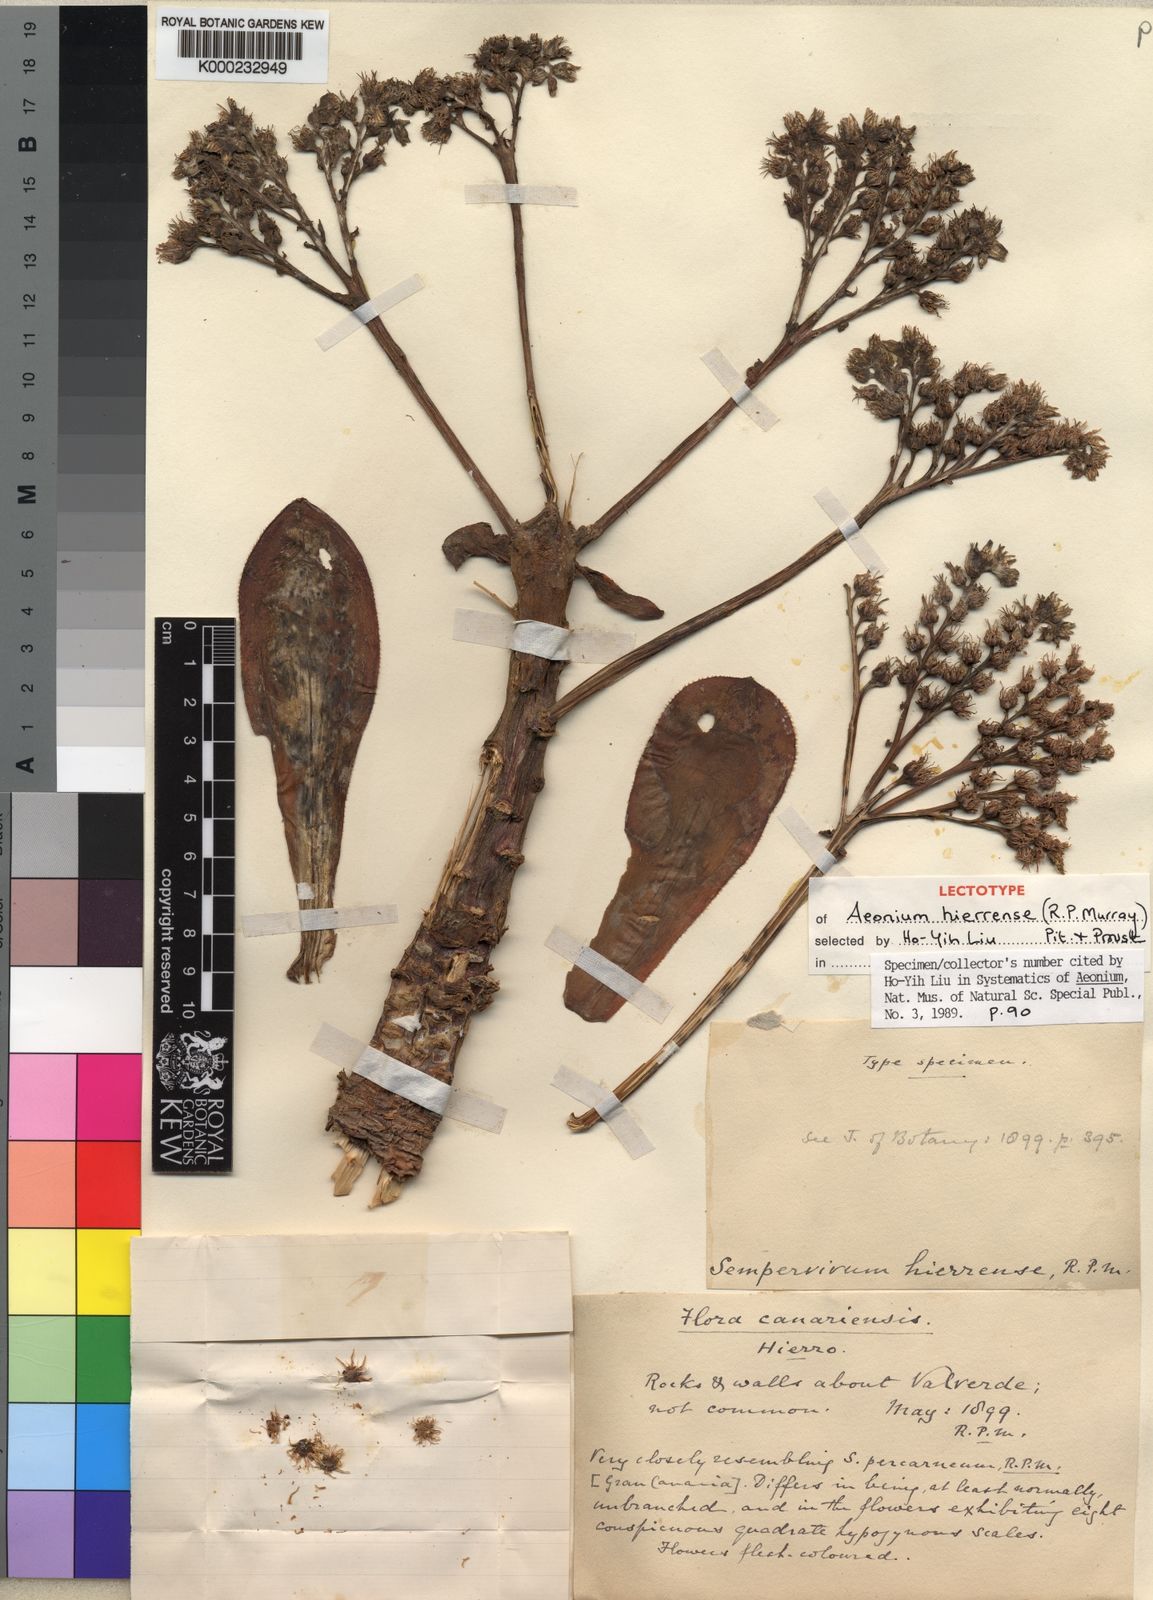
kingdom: Plantae
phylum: Tracheophyta
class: Magnoliopsida
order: Saxifragales
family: Crassulaceae
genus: Aeonium
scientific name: Aeonium hierrense
